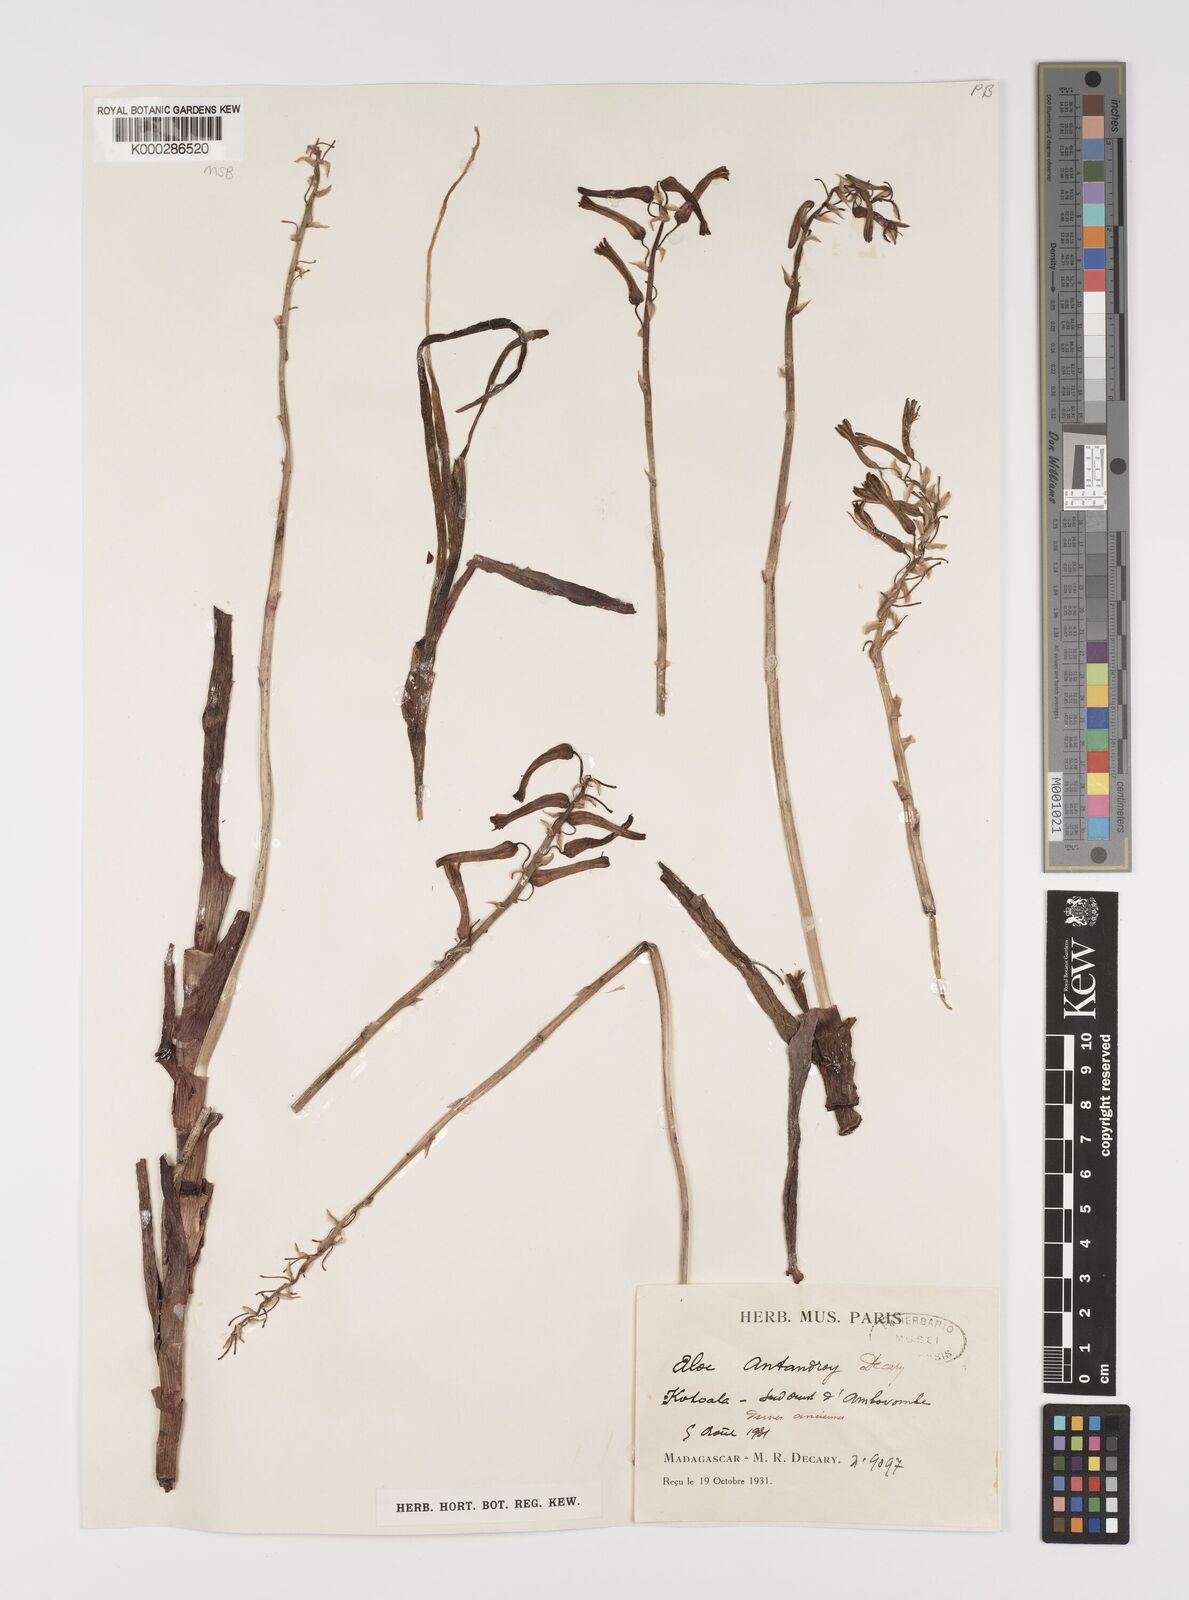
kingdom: Plantae
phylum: Tracheophyta
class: Liliopsida
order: Asparagales
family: Asphodelaceae
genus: Aloe
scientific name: Aloe
